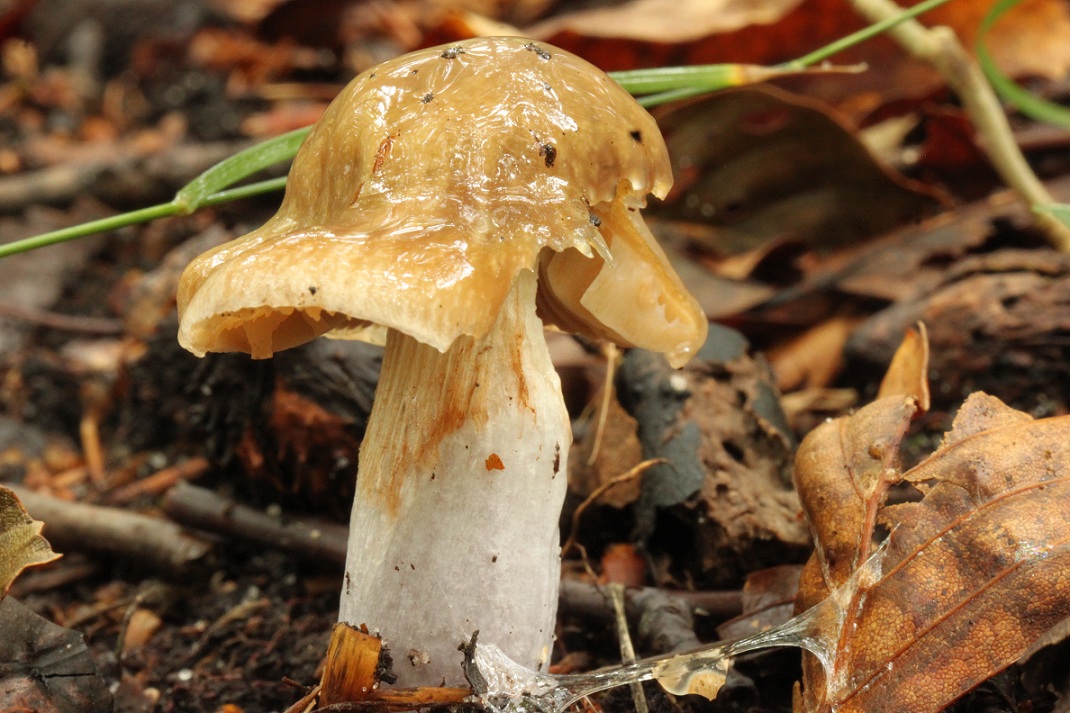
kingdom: Fungi
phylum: Basidiomycota
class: Agaricomycetes
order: Agaricales
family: Cortinariaceae
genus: Cortinarius
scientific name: Cortinarius elatior
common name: høj slørhat
